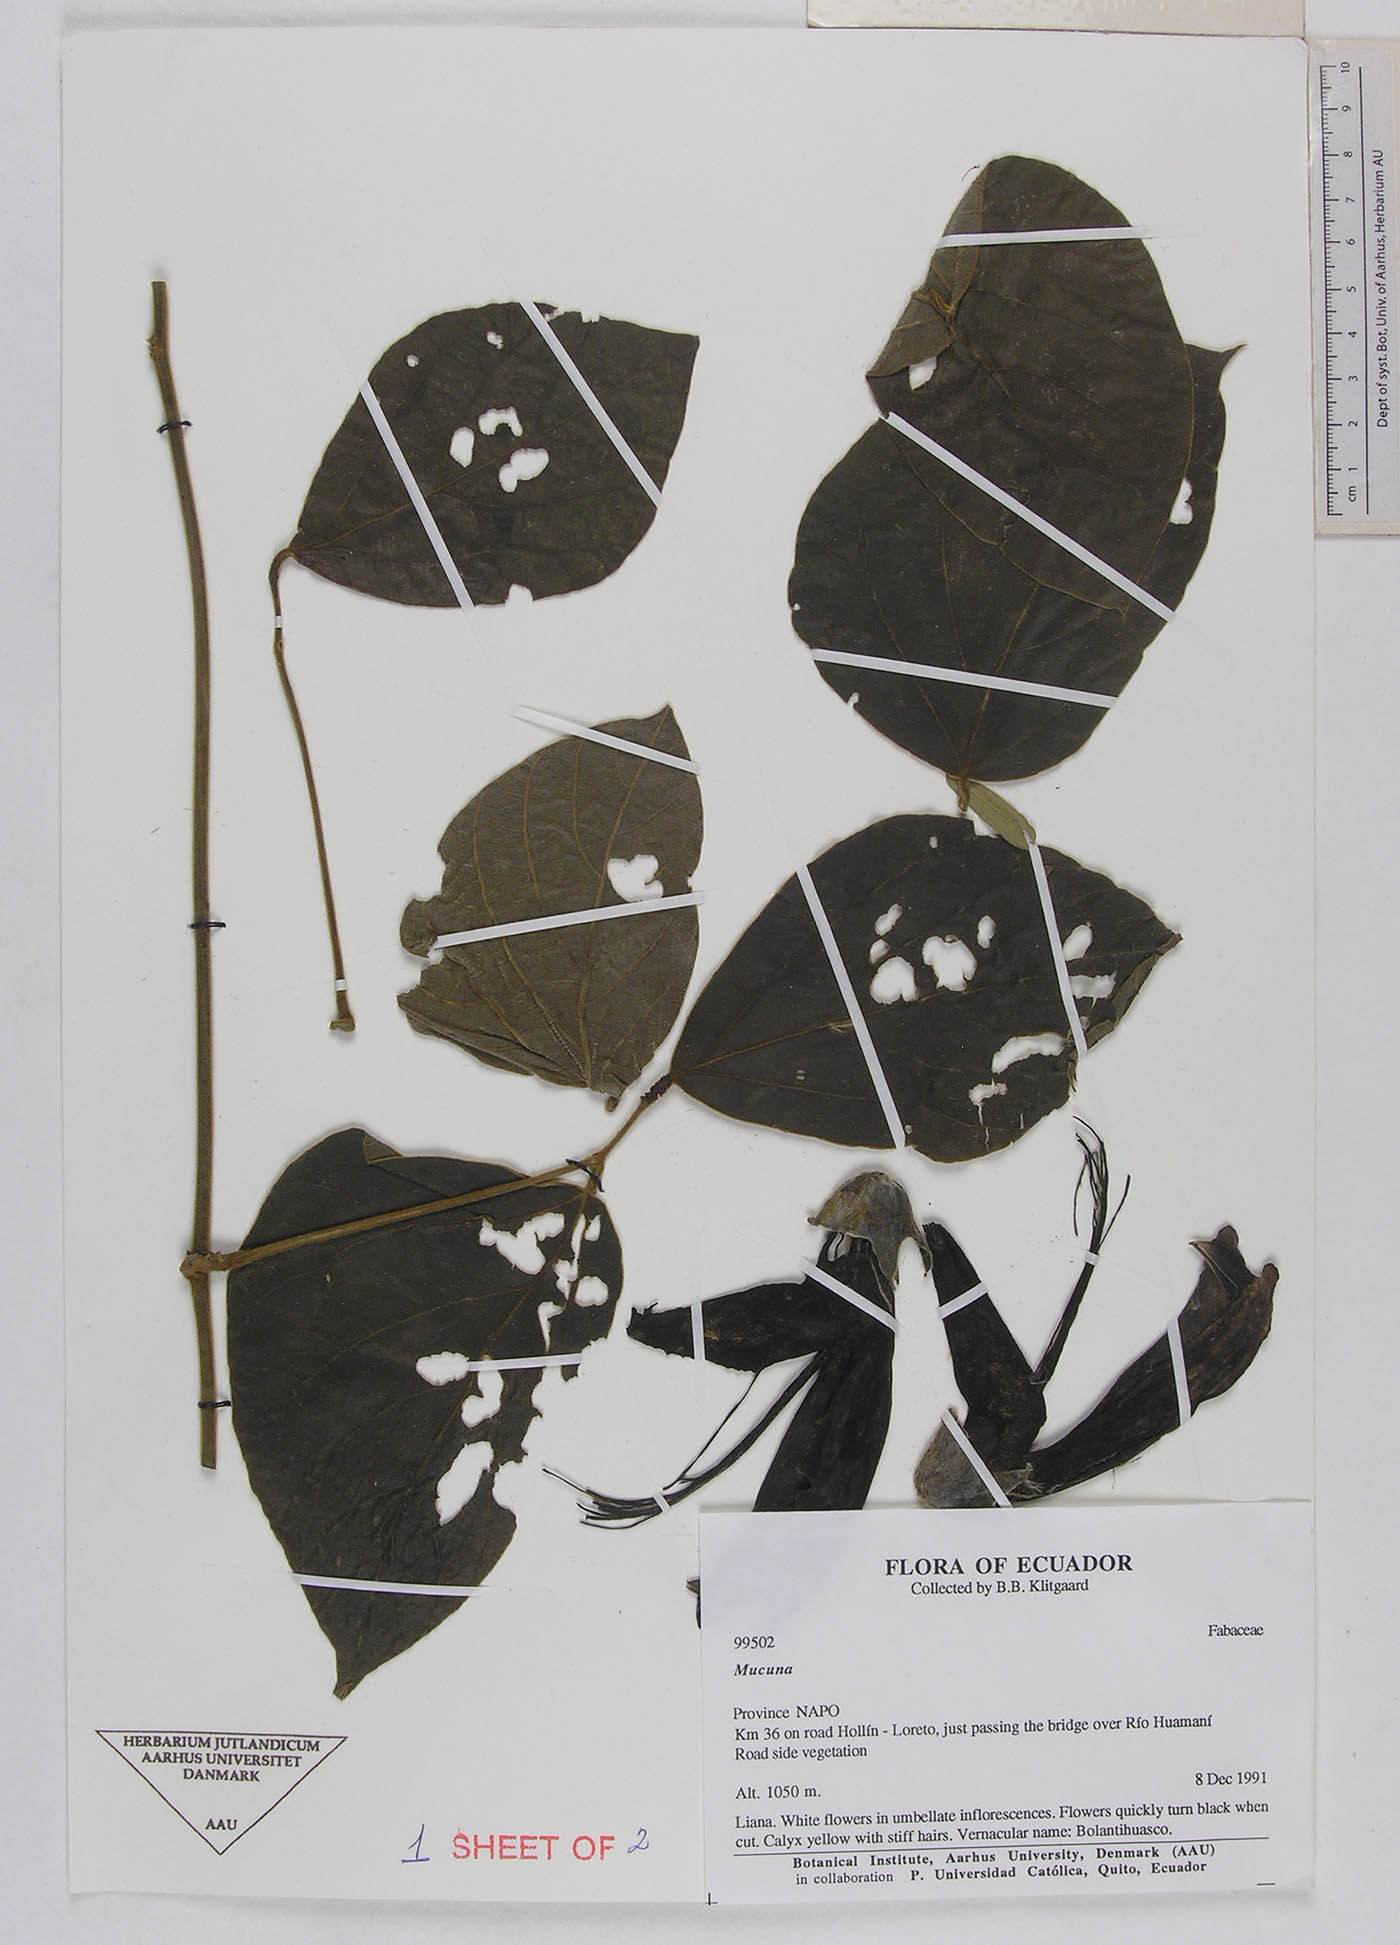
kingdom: Plantae
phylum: Tracheophyta
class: Magnoliopsida
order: Fabales
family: Fabaceae
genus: Mucuna
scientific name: Mucuna klitgaardiae
